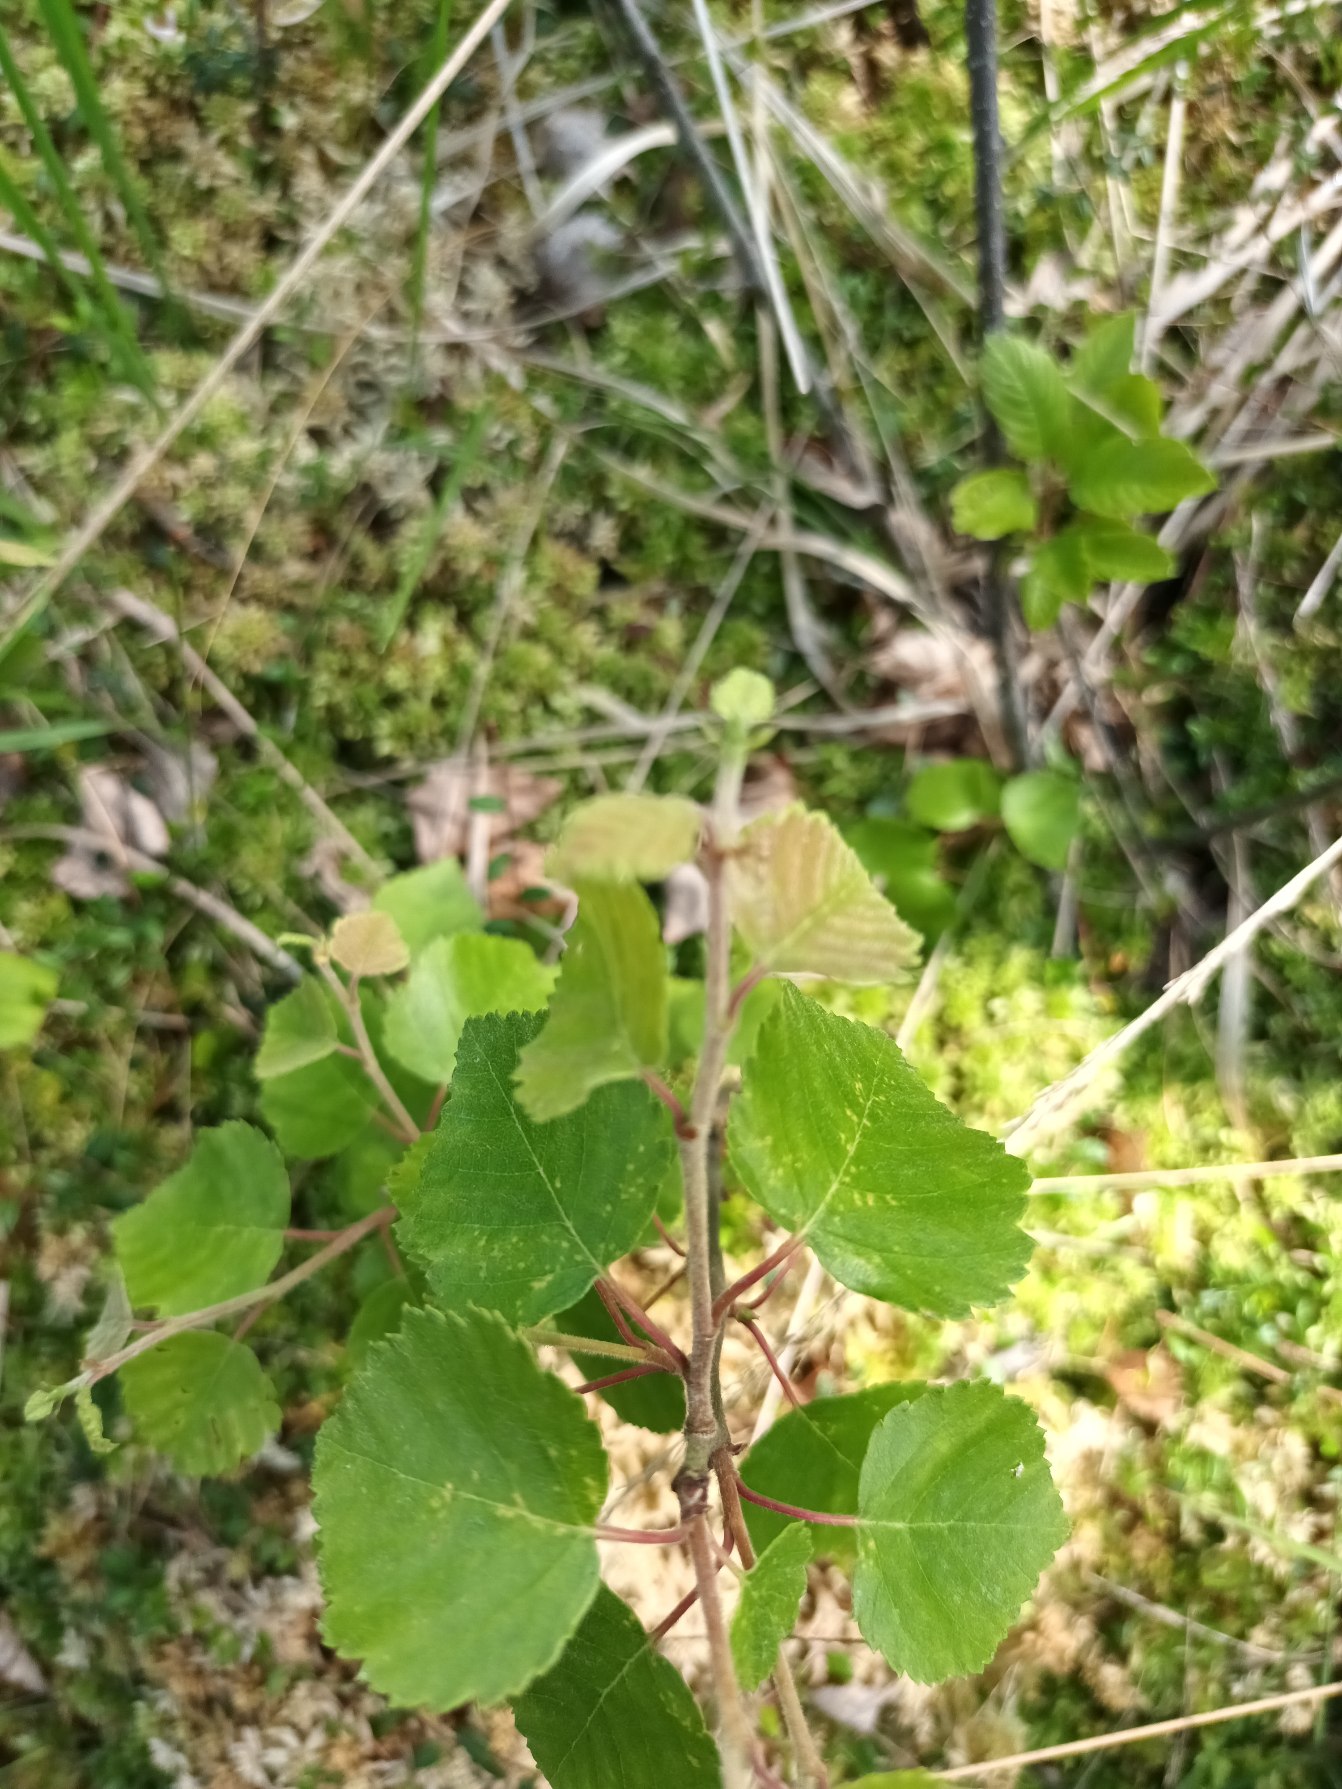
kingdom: Plantae
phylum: Tracheophyta
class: Magnoliopsida
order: Fagales
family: Betulaceae
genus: Betula
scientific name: Betula pubescens
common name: Dun-birk
